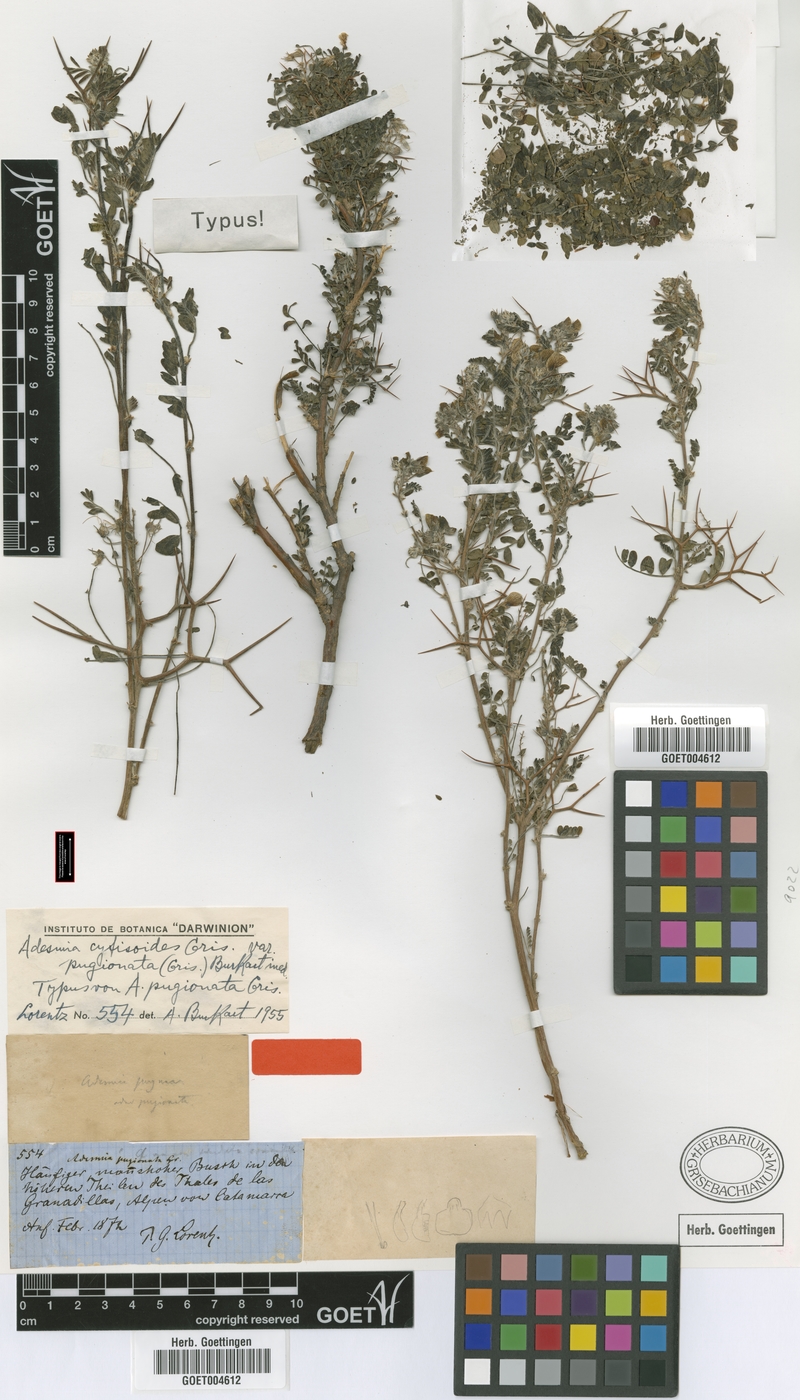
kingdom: Plantae
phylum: Tracheophyta
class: Magnoliopsida
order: Fabales
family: Fabaceae
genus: Adesmia
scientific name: Adesmia cytisoides
